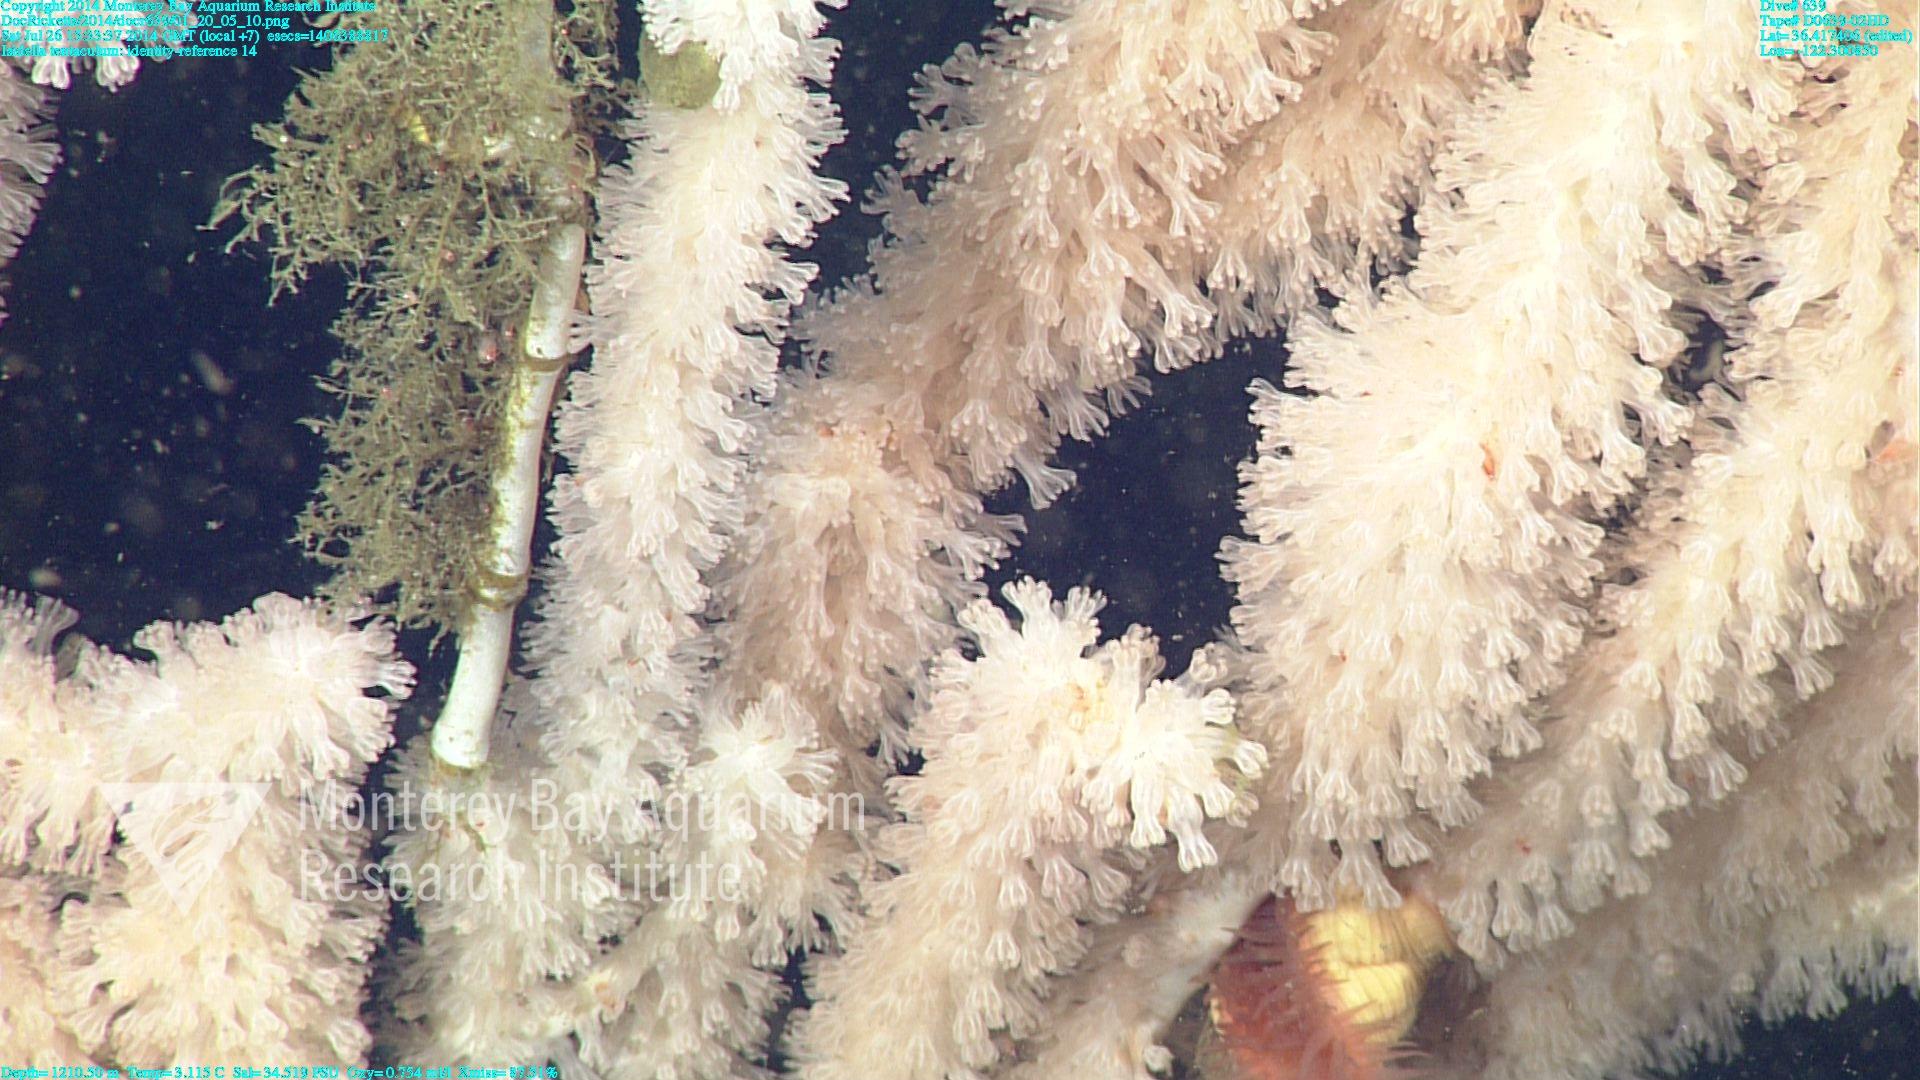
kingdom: Animalia
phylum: Cnidaria
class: Anthozoa
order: Scleralcyonacea
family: Keratoisididae
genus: Isidella
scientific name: Isidella tentaculum
